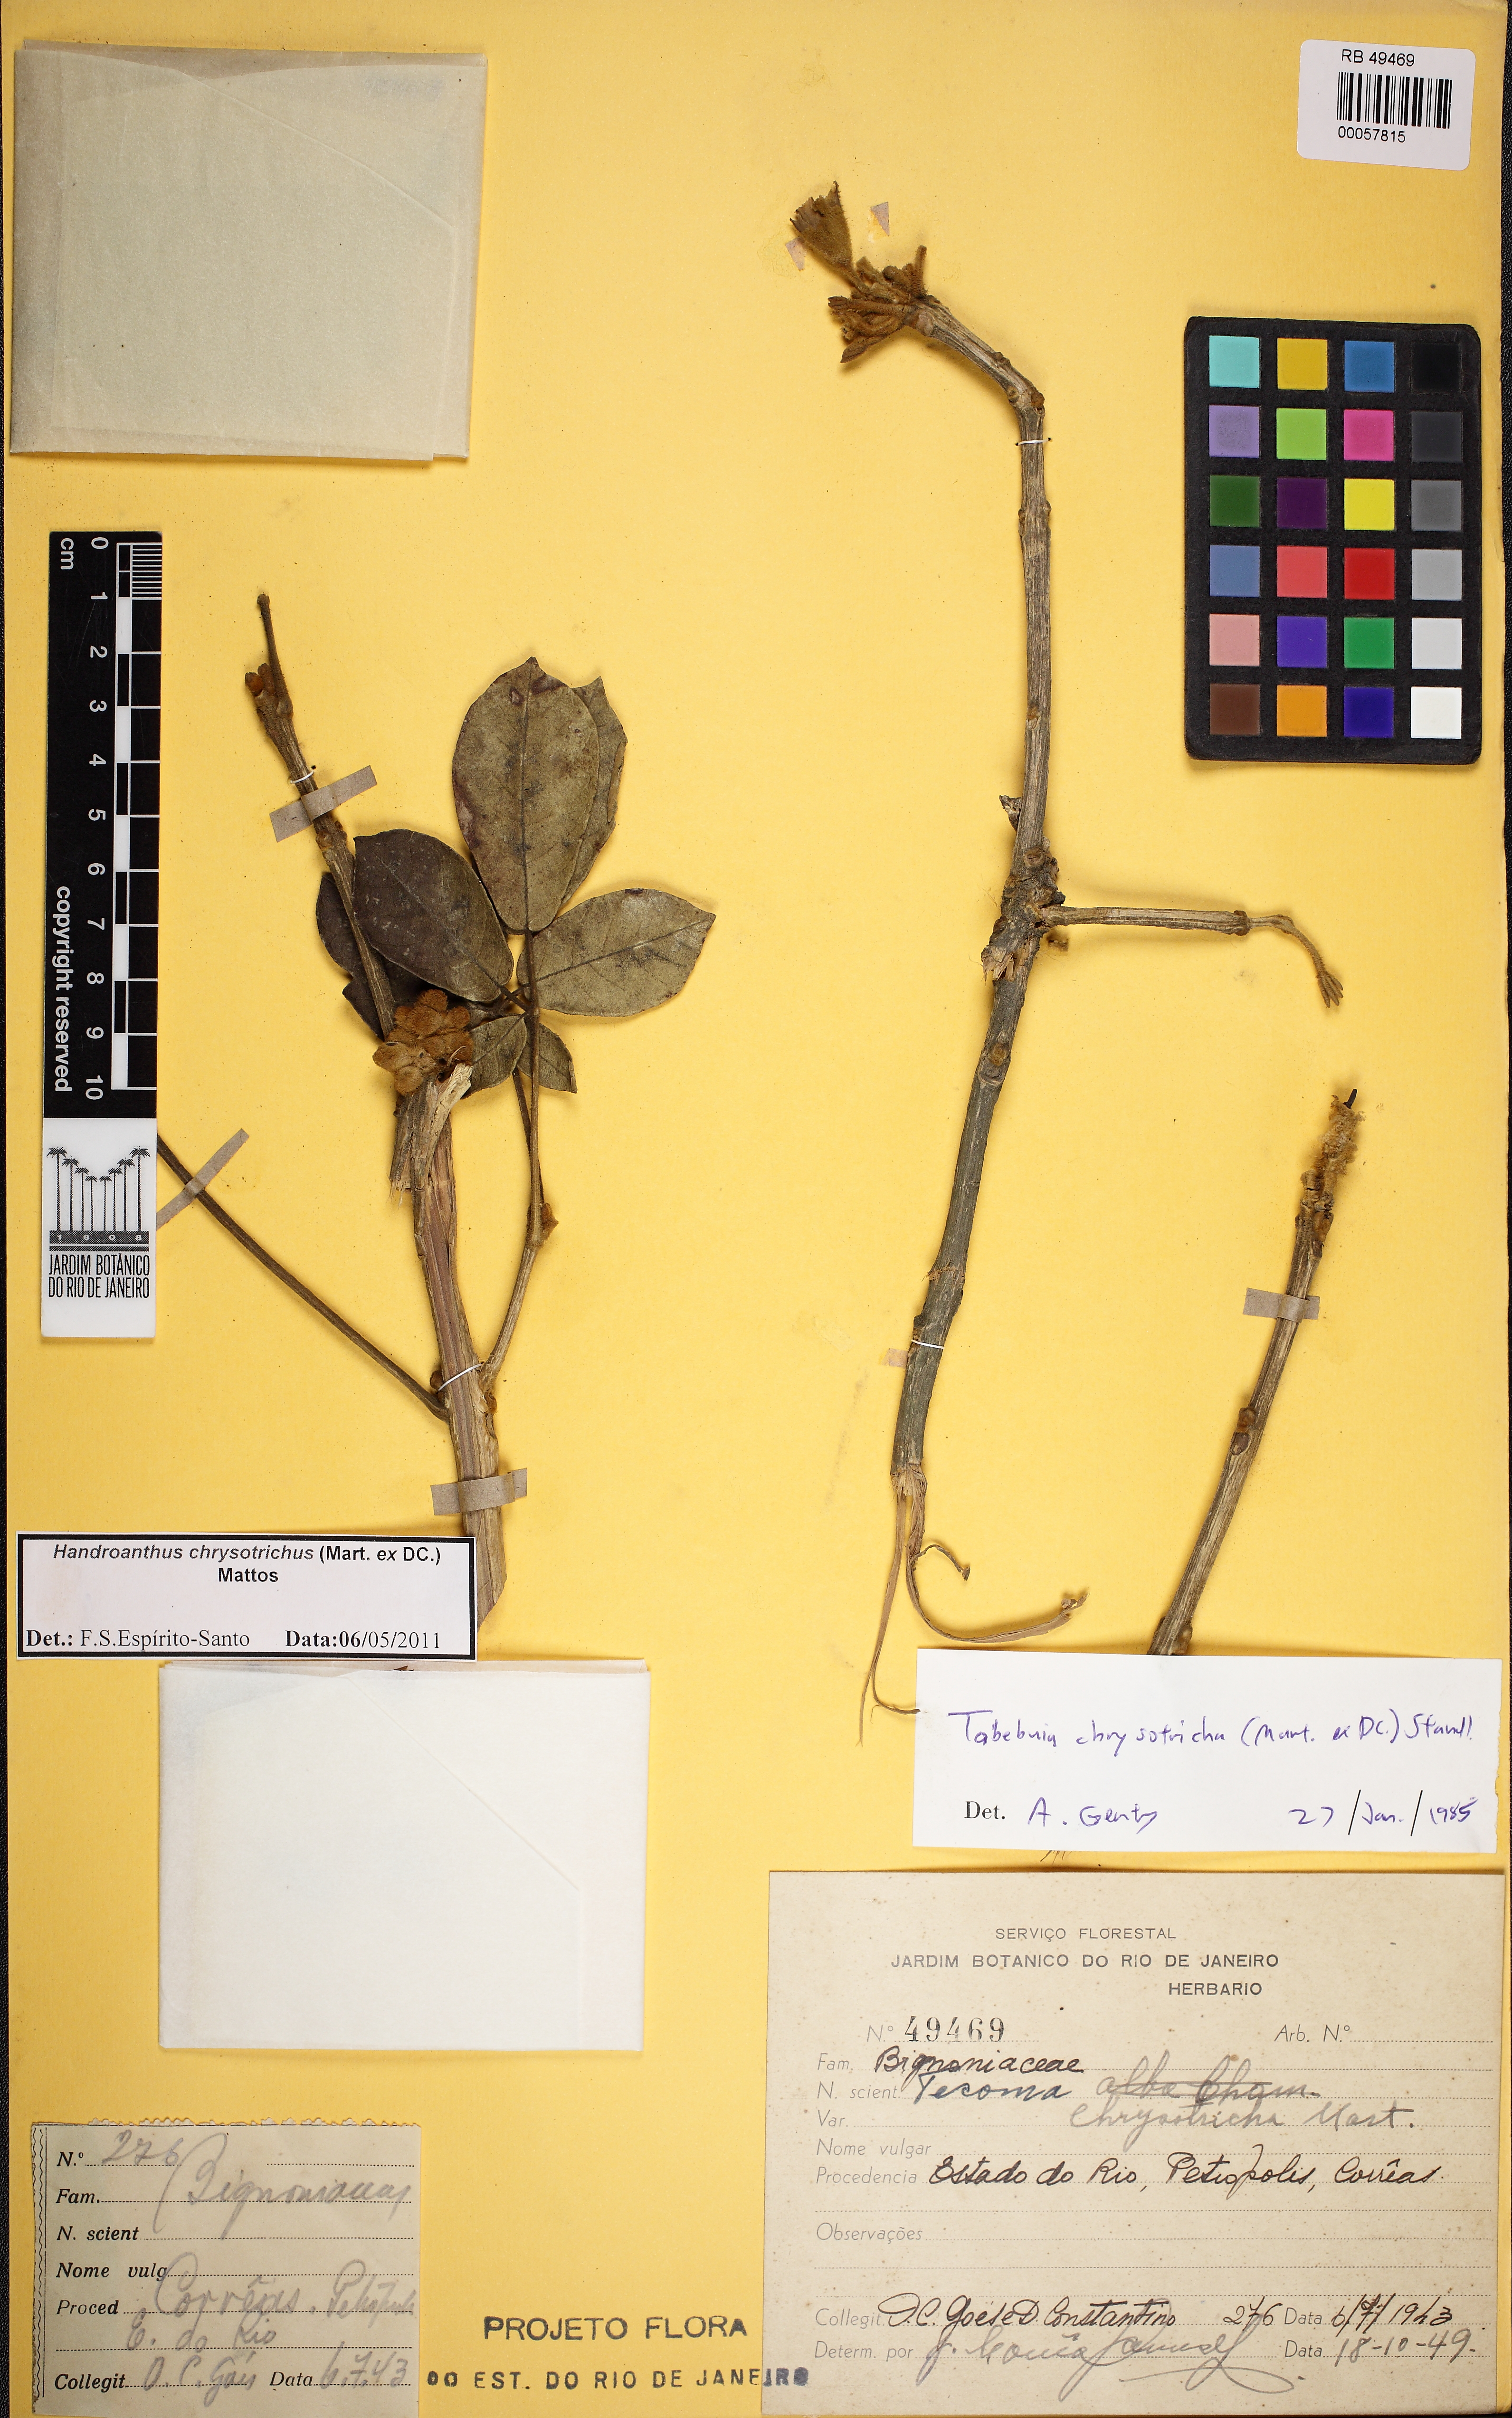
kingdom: Plantae
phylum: Tracheophyta
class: Magnoliopsida
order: Lamiales
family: Bignoniaceae
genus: Handroanthus
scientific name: Handroanthus chrysotrichus
